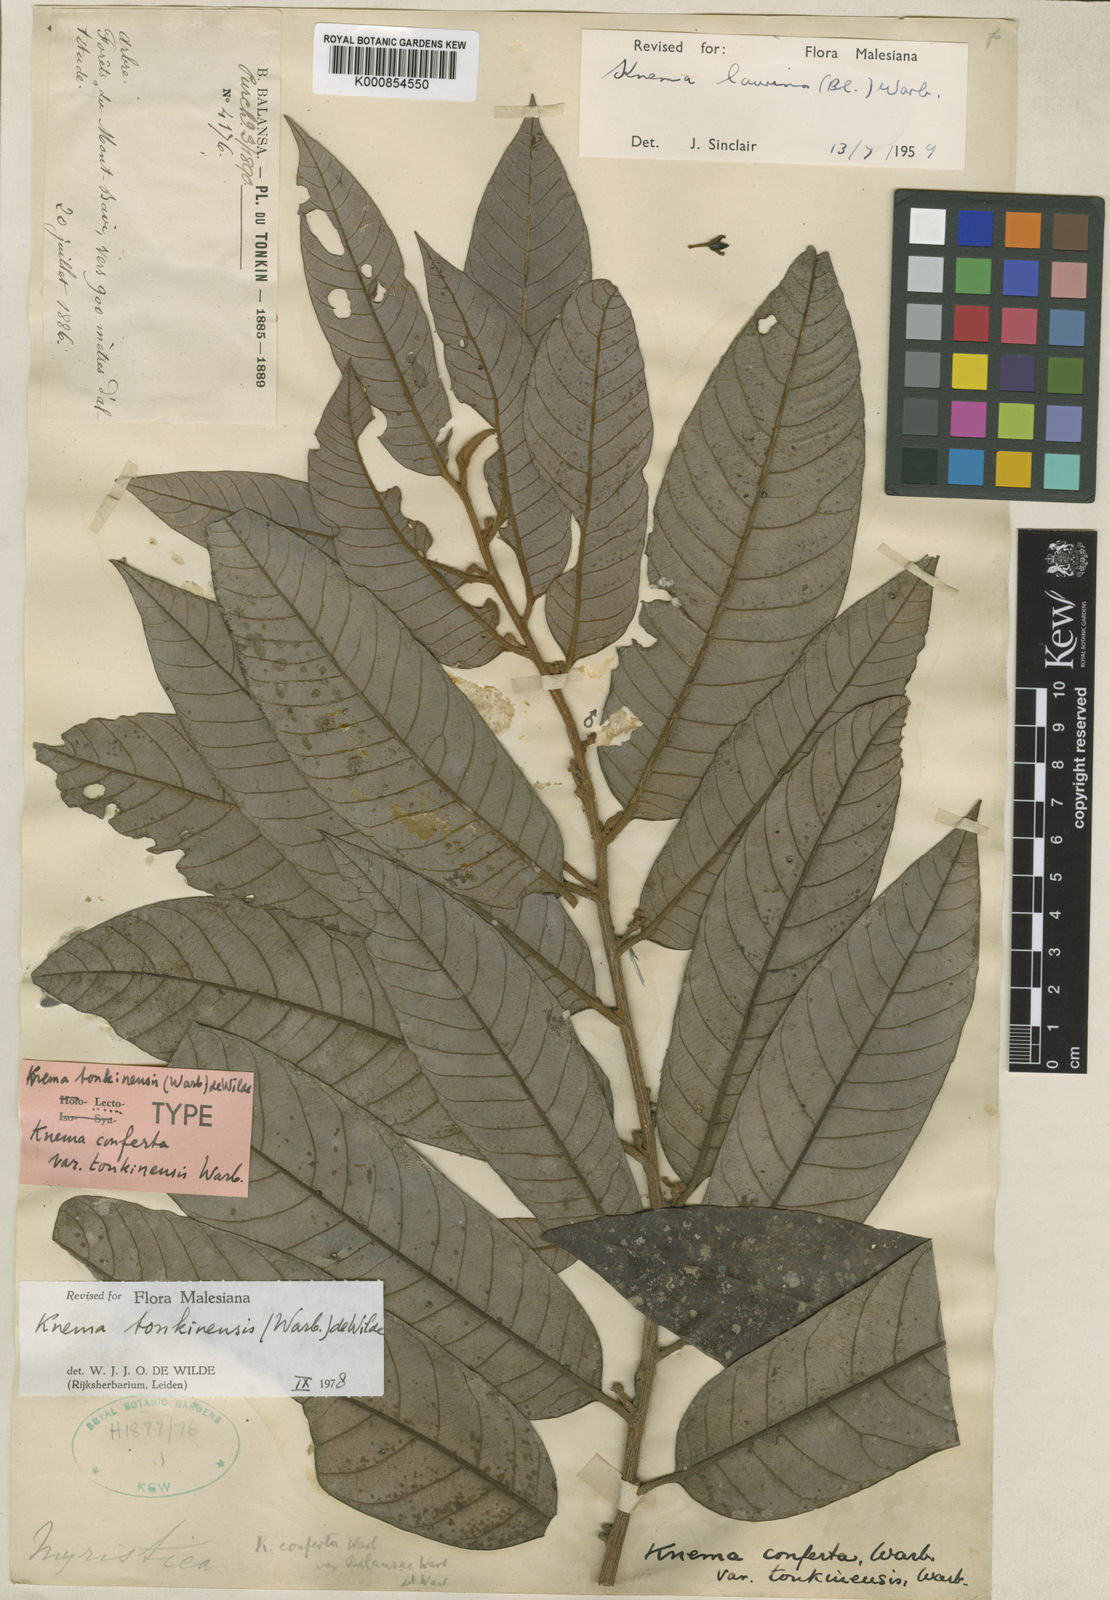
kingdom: Plantae
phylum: Tracheophyta
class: Magnoliopsida
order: Magnoliales
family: Myristicaceae
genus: Knema
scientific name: Knema tonkinensis
